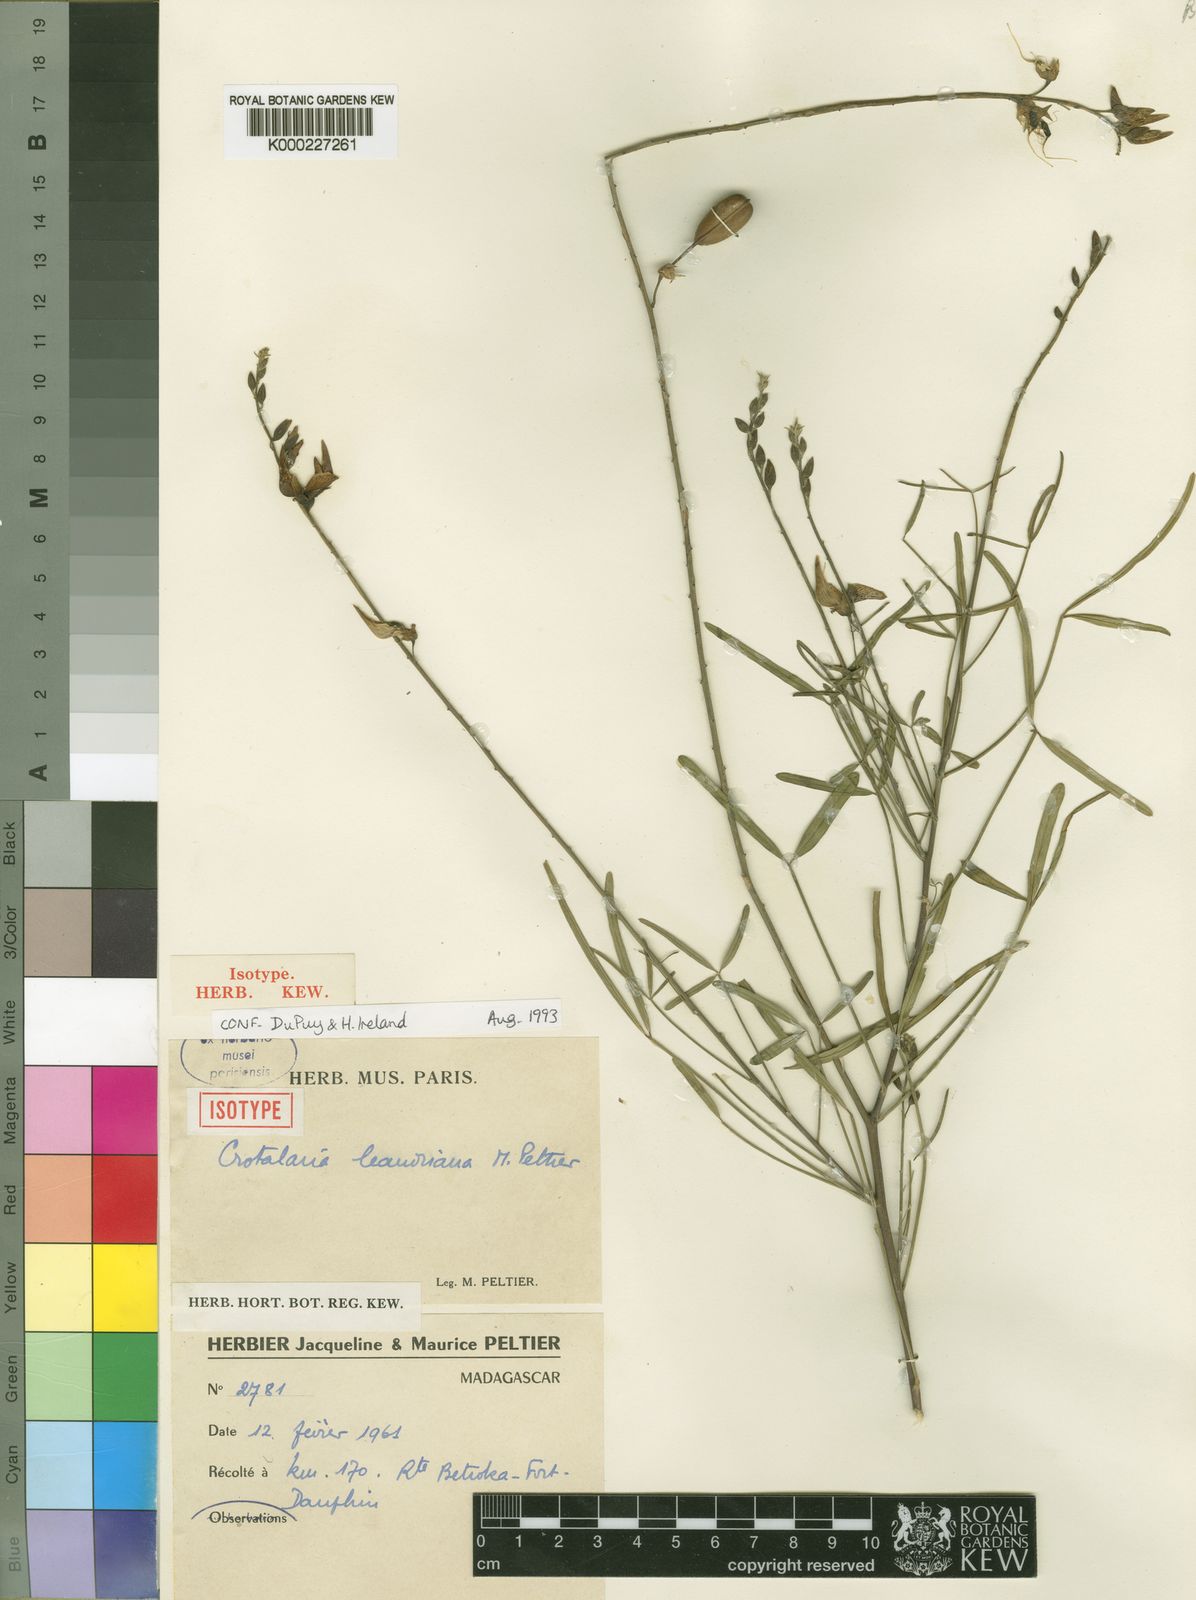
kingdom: Plantae
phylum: Tracheophyta
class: Magnoliopsida
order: Fabales
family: Fabaceae
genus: Crotalaria
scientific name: Crotalaria leandriana
